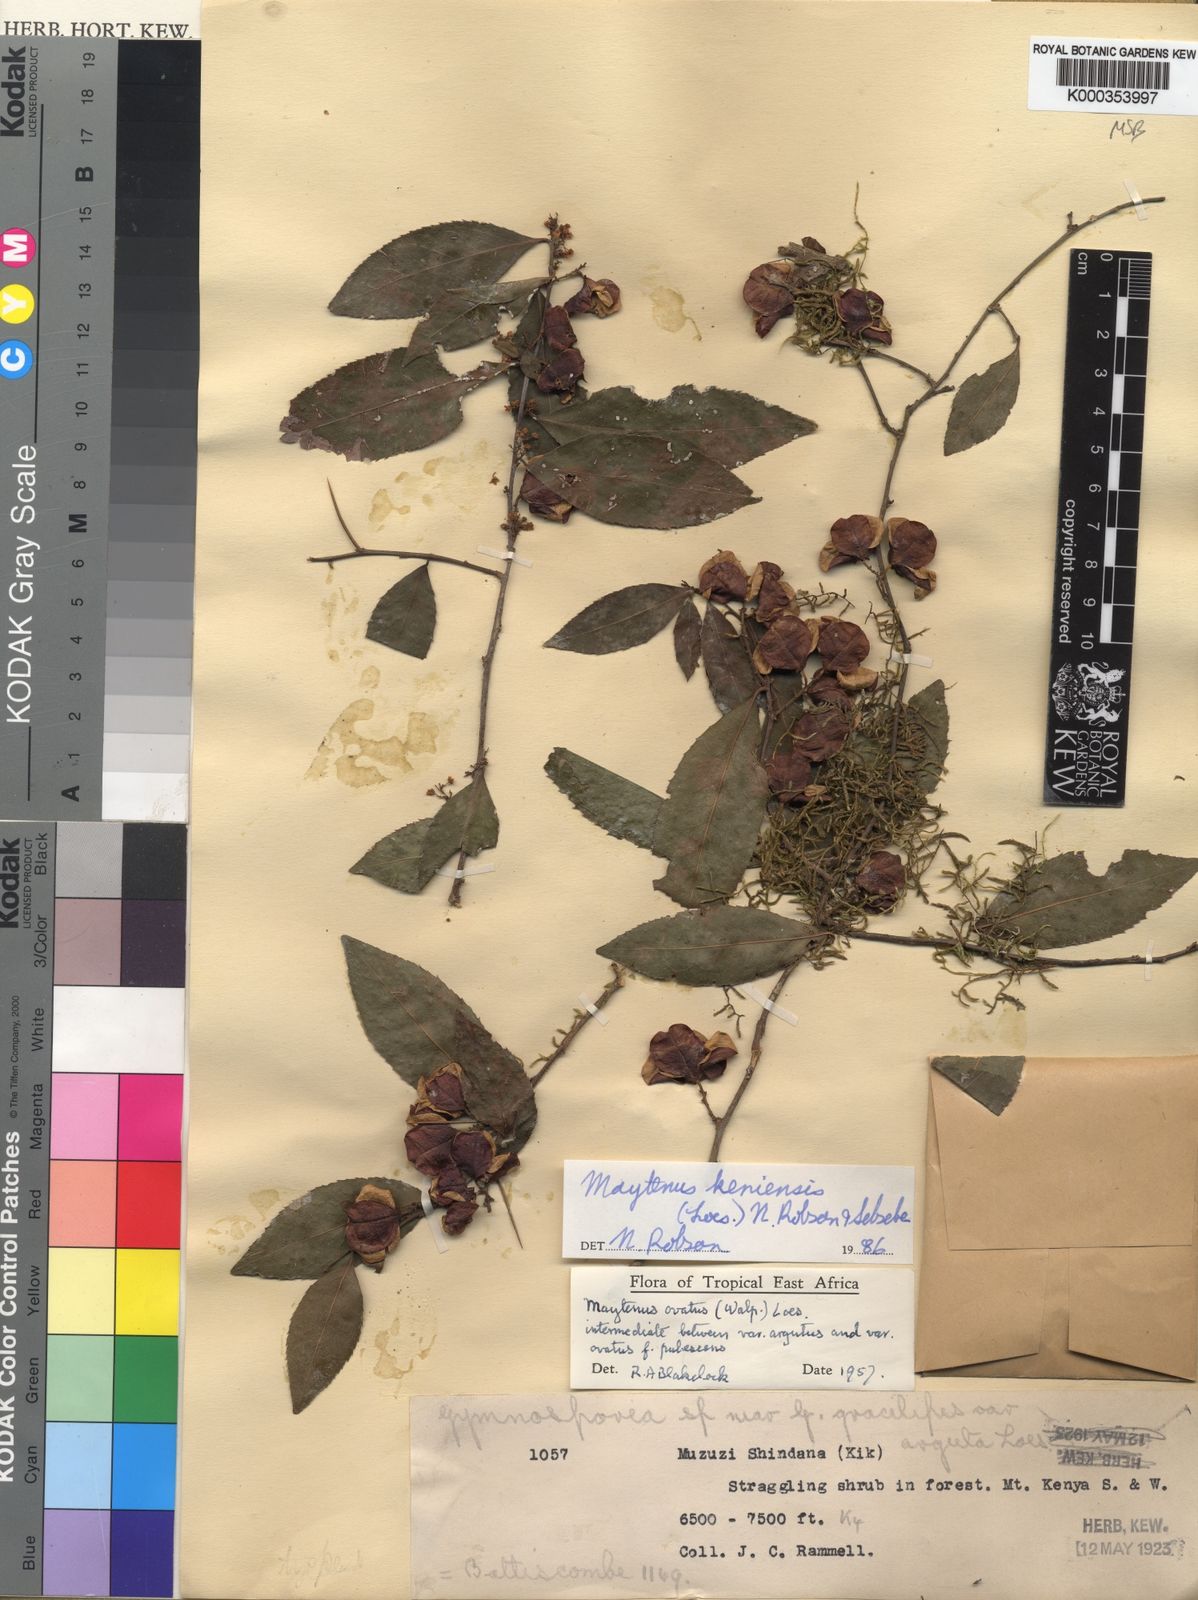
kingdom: Plantae
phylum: Tracheophyta
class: Magnoliopsida
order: Celastrales
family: Celastraceae
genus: Gymnosporia
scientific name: Gymnosporia keniensis
